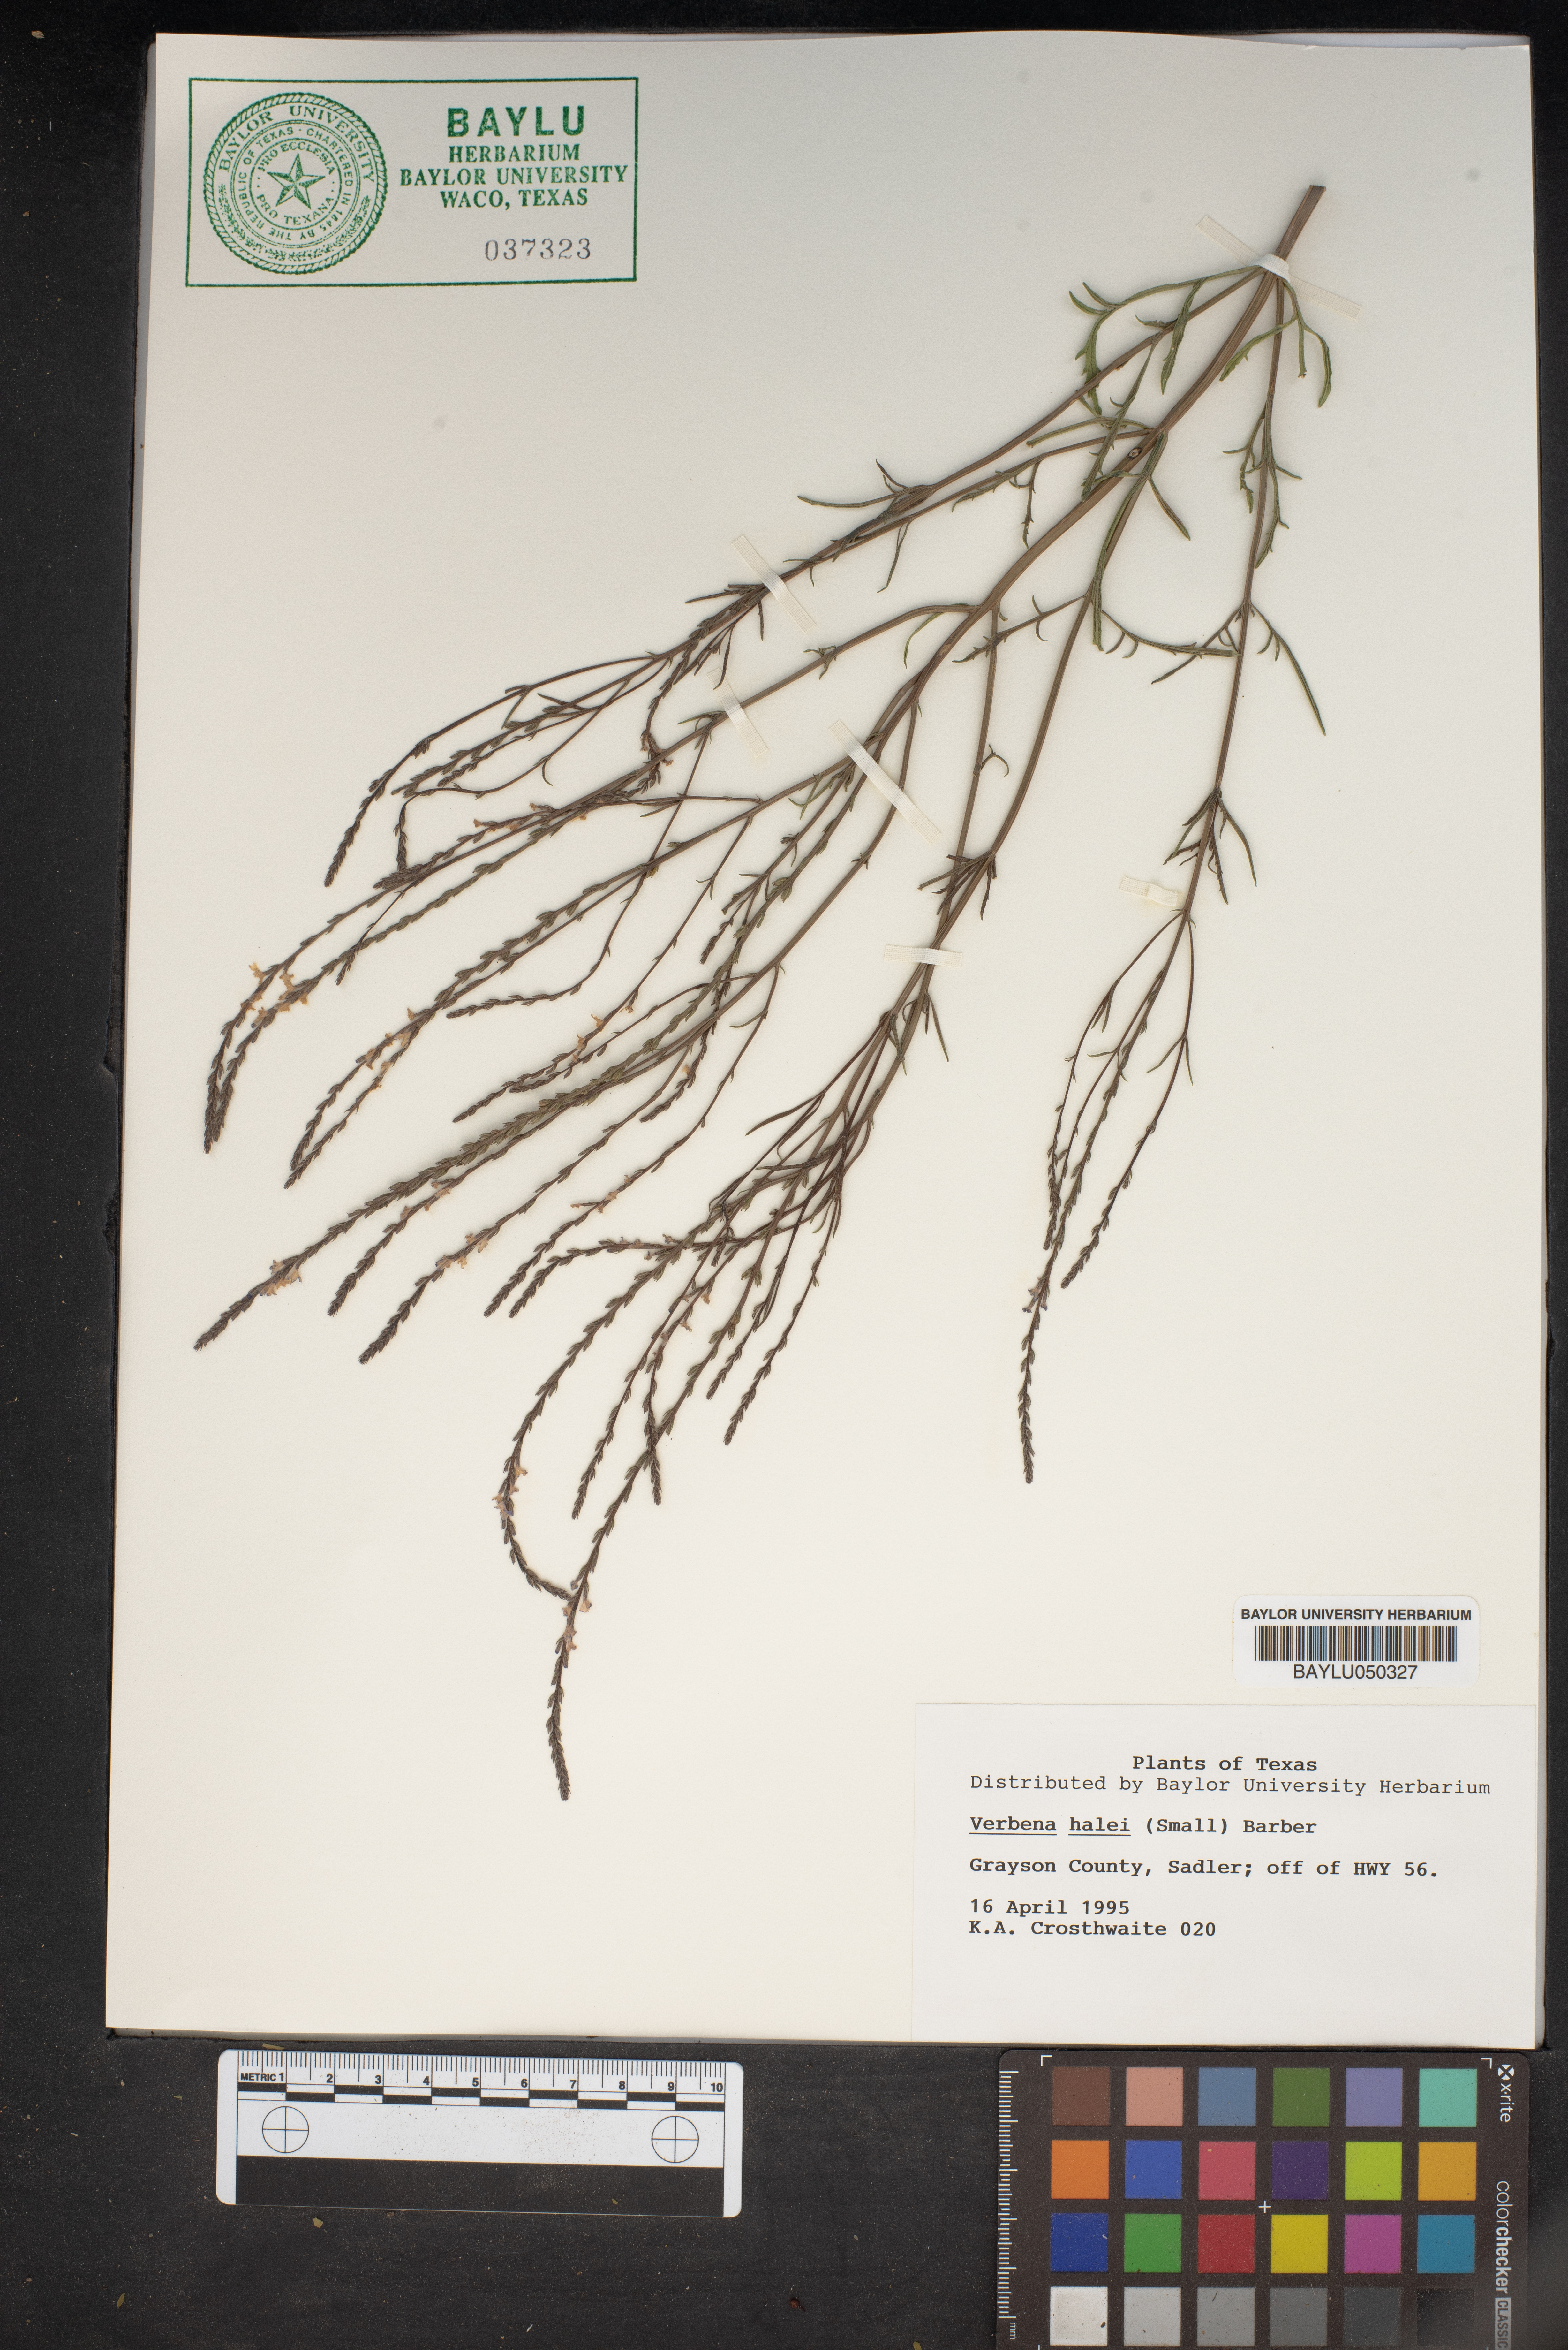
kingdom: Plantae
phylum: Tracheophyta
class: Magnoliopsida
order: Lamiales
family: Verbenaceae
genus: Verbena
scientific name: Verbena halei
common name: Texas vervain
